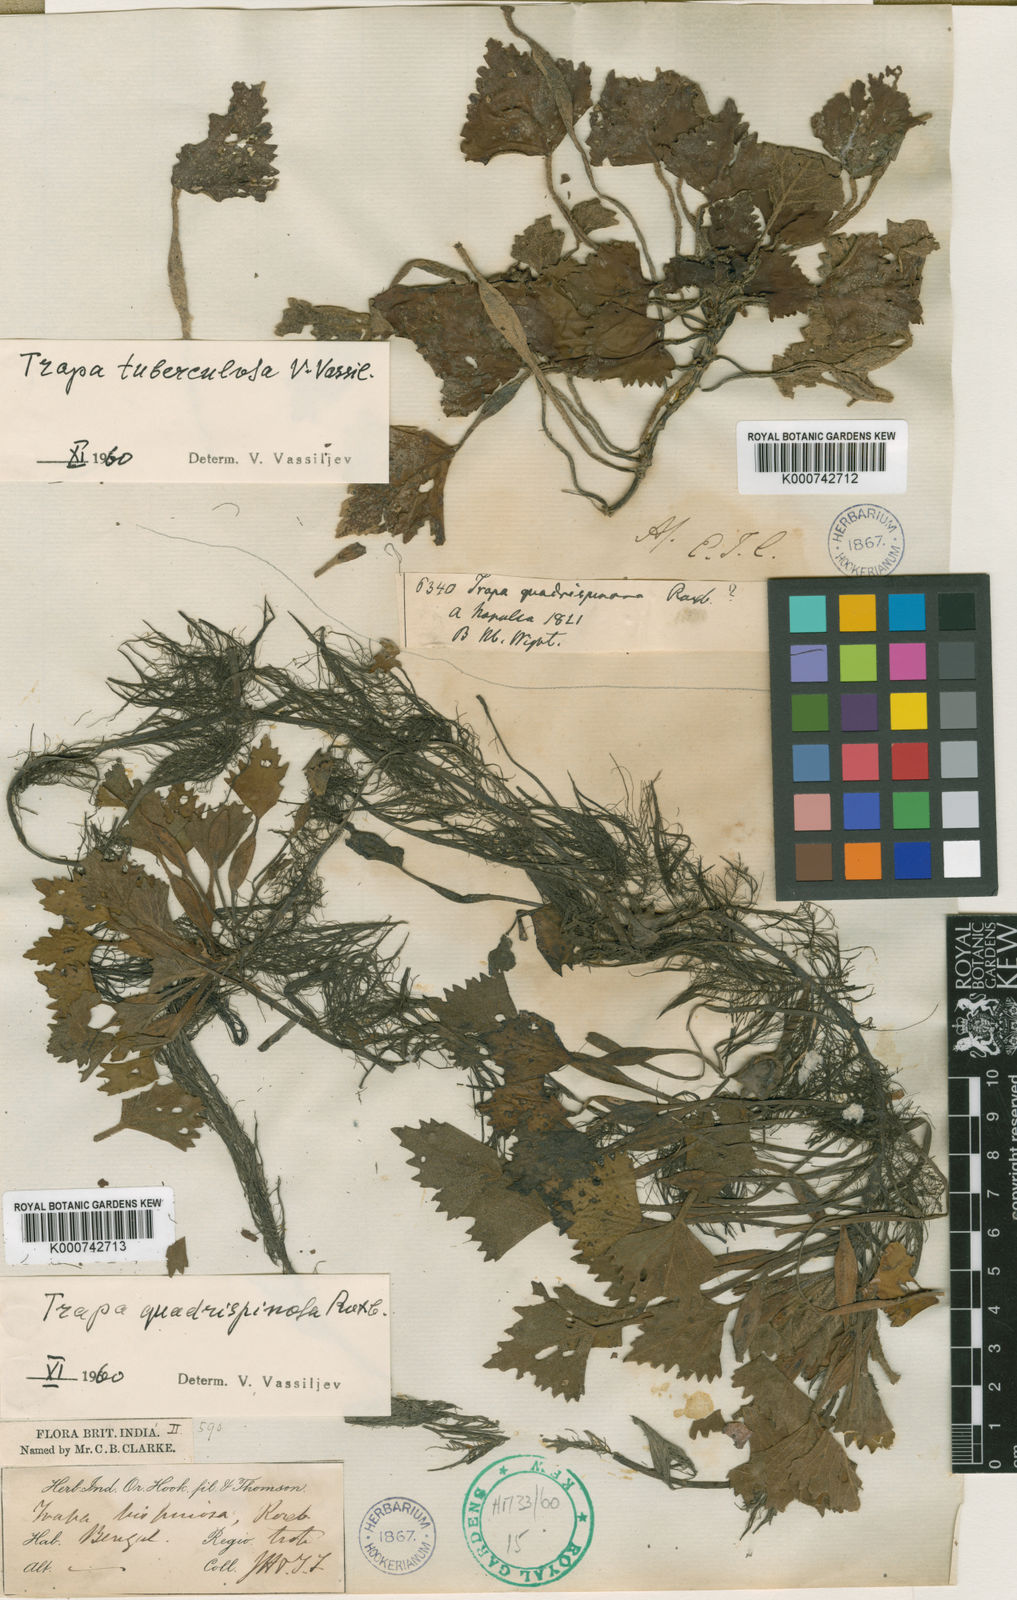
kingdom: Plantae
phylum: Tracheophyta
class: Magnoliopsida
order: Myrtales
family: Lythraceae
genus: Trapa
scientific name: Trapa natans
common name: Water chestnut
